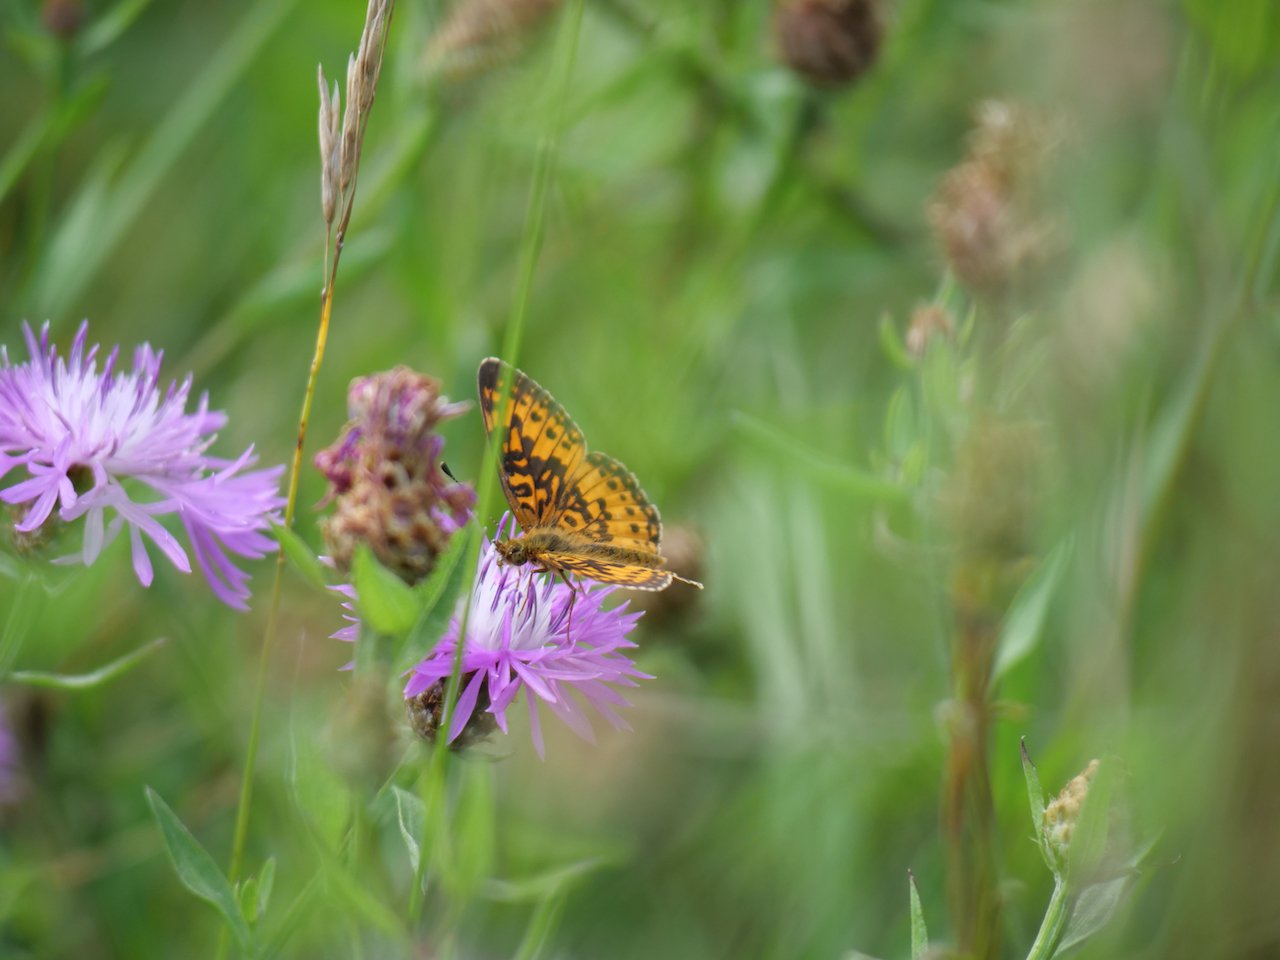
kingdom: Animalia
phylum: Arthropoda
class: Insecta
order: Lepidoptera
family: Nymphalidae
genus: Boloria
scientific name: Boloria selene
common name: Silver-bordered Fritillary
